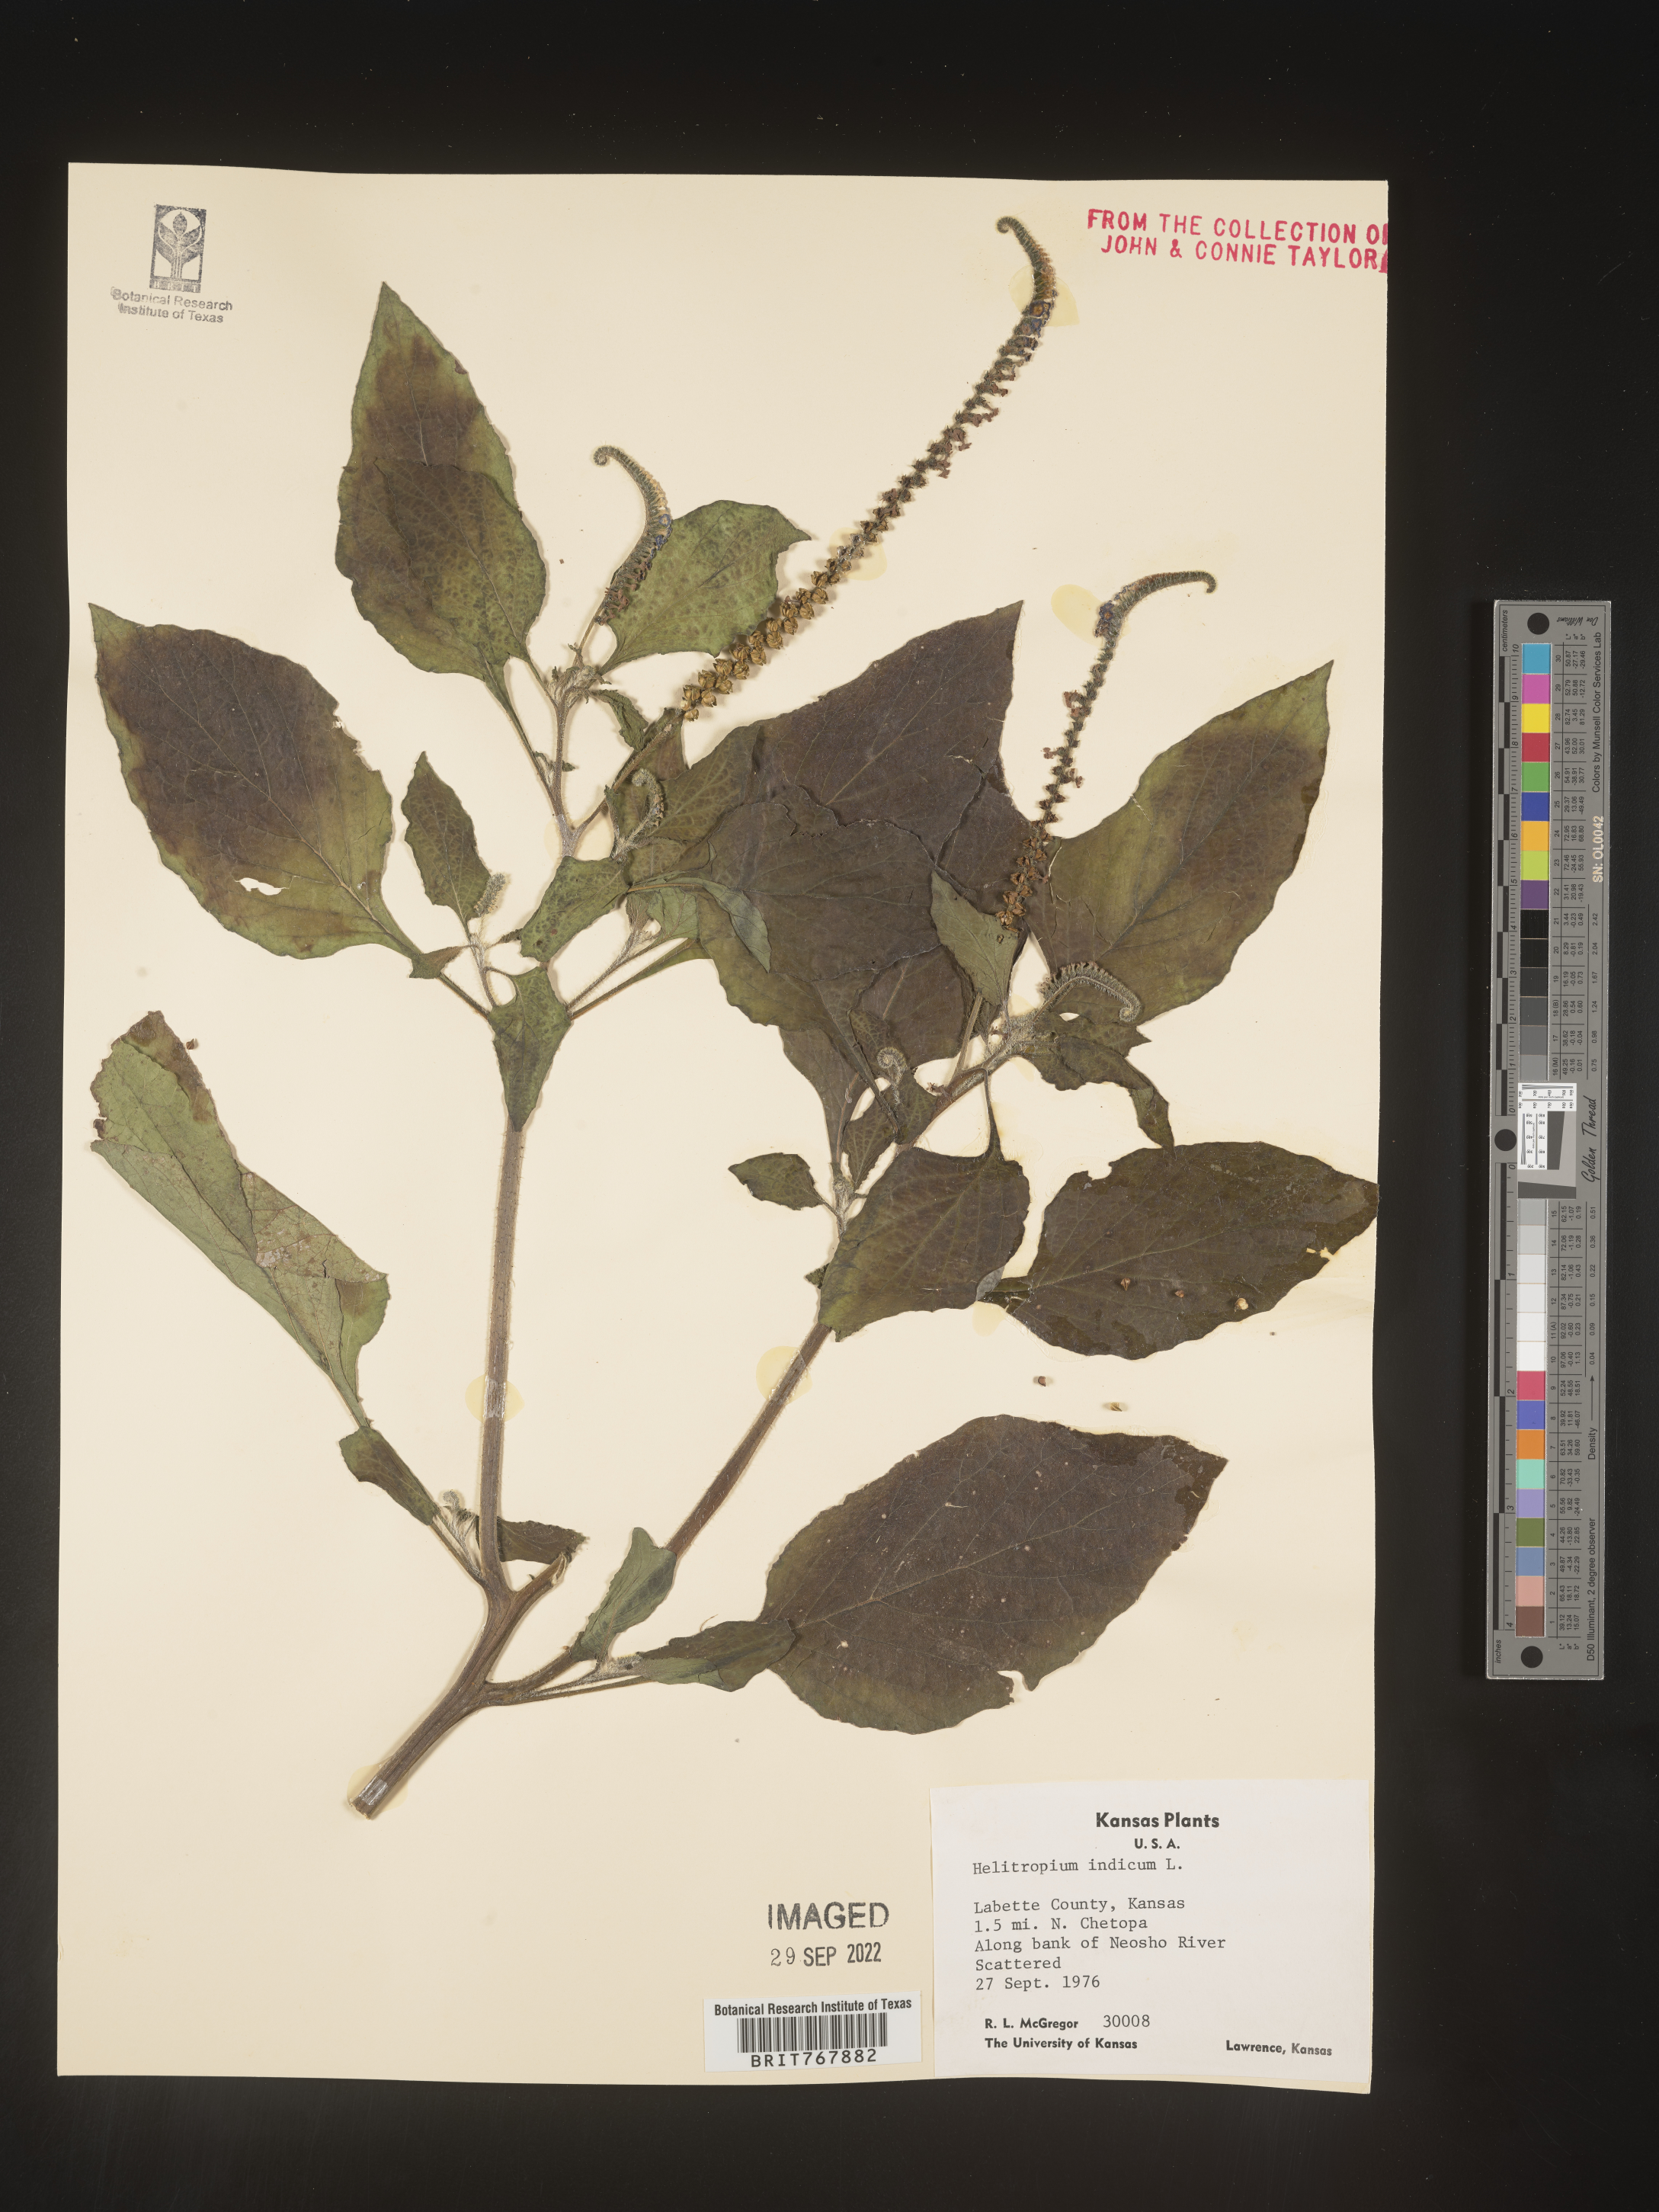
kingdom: Plantae
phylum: Tracheophyta
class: Magnoliopsida
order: Boraginales
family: Heliotropiaceae
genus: Heliotropium
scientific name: Heliotropium indicum
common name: Indian heliotrope
